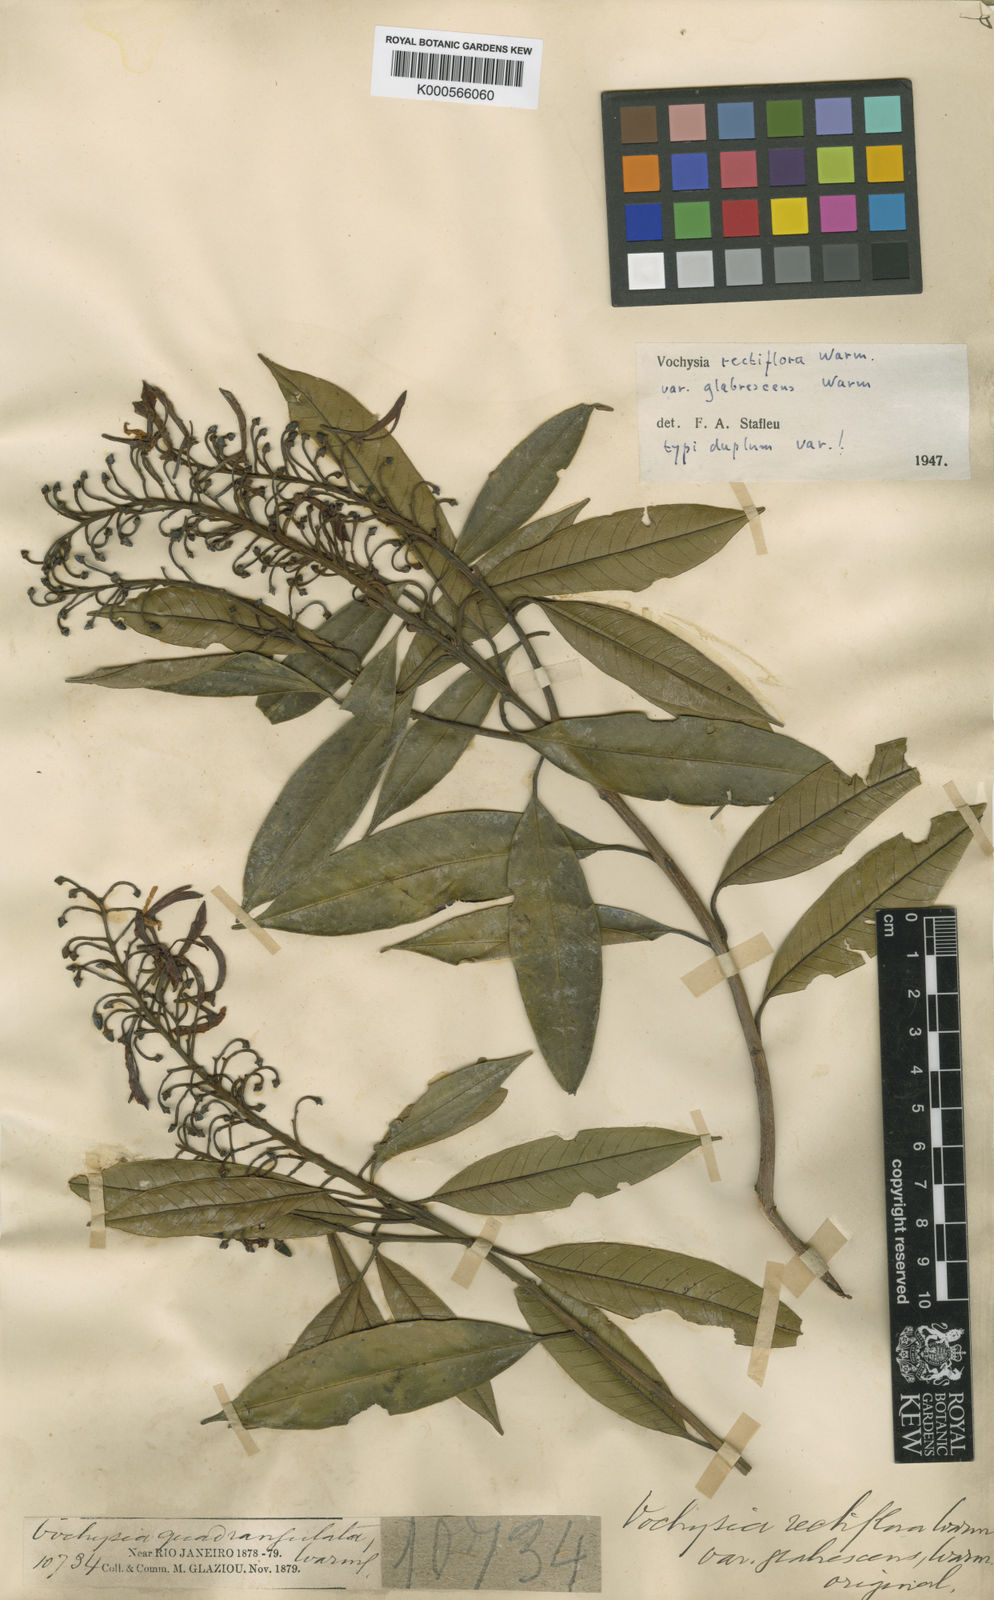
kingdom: Plantae
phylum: Tracheophyta
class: Magnoliopsida
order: Myrtales
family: Vochysiaceae
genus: Vochysia
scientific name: Vochysia rectiflora
